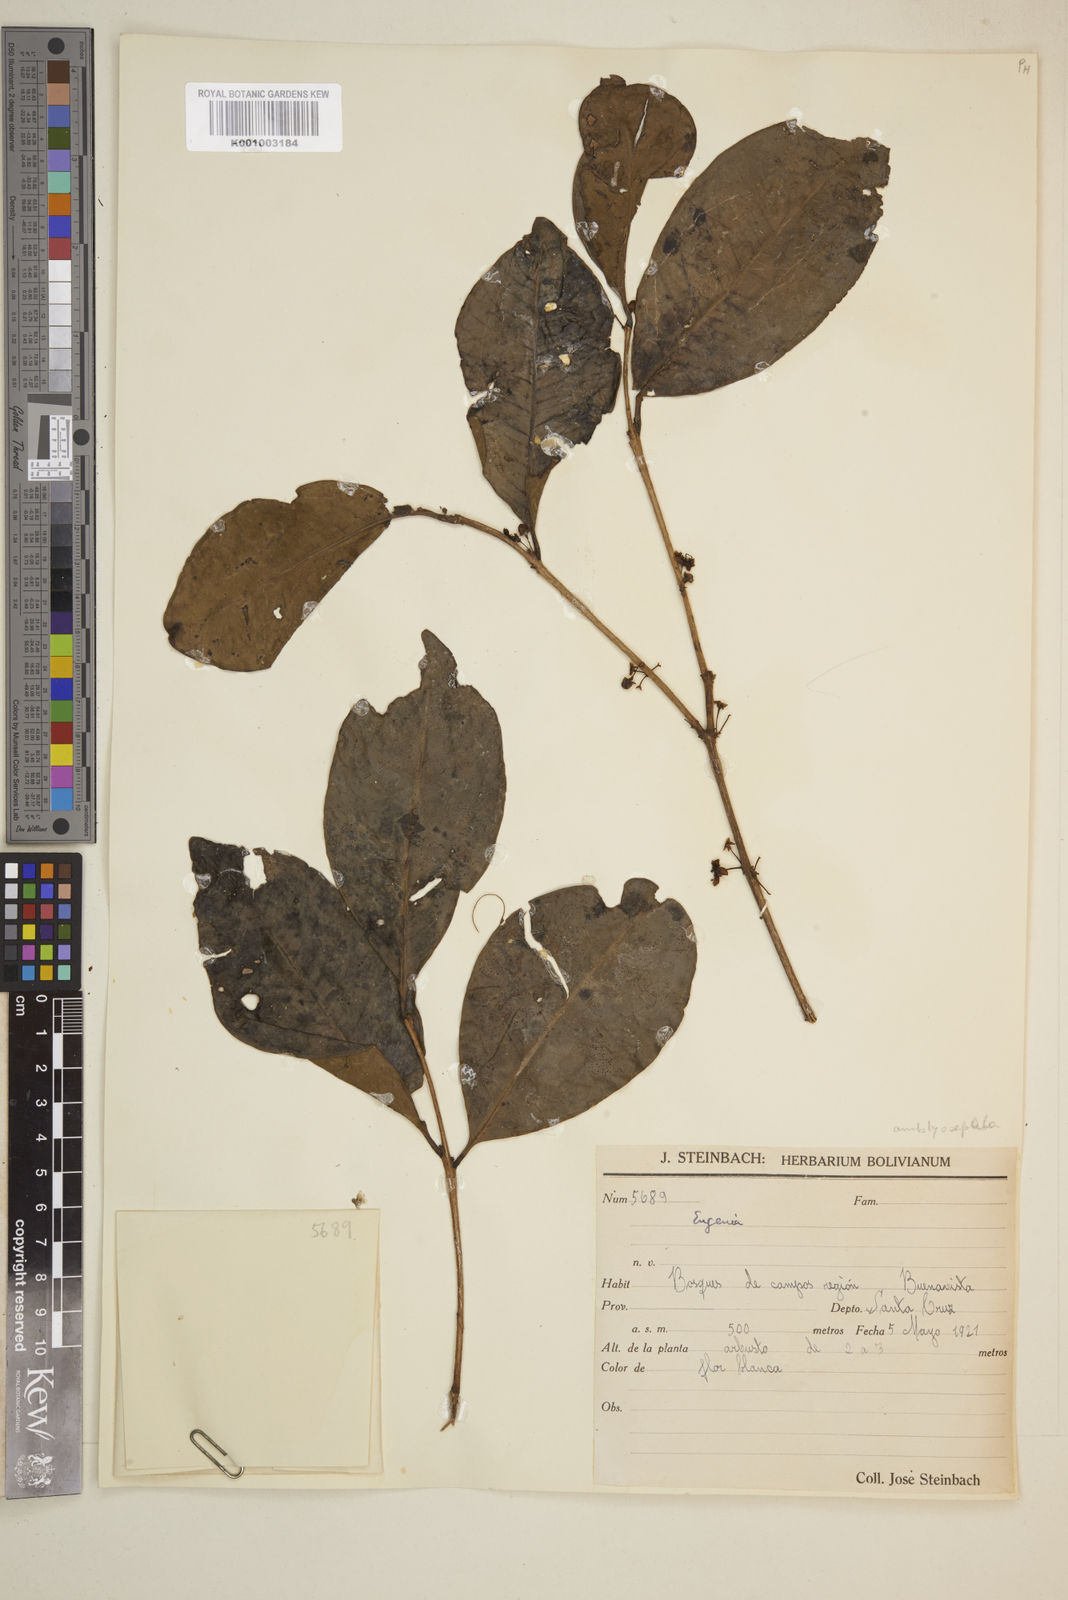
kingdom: Plantae
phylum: Tracheophyta
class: Magnoliopsida
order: Myrtales
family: Myrtaceae
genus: Eugenia
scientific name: Eugenia
